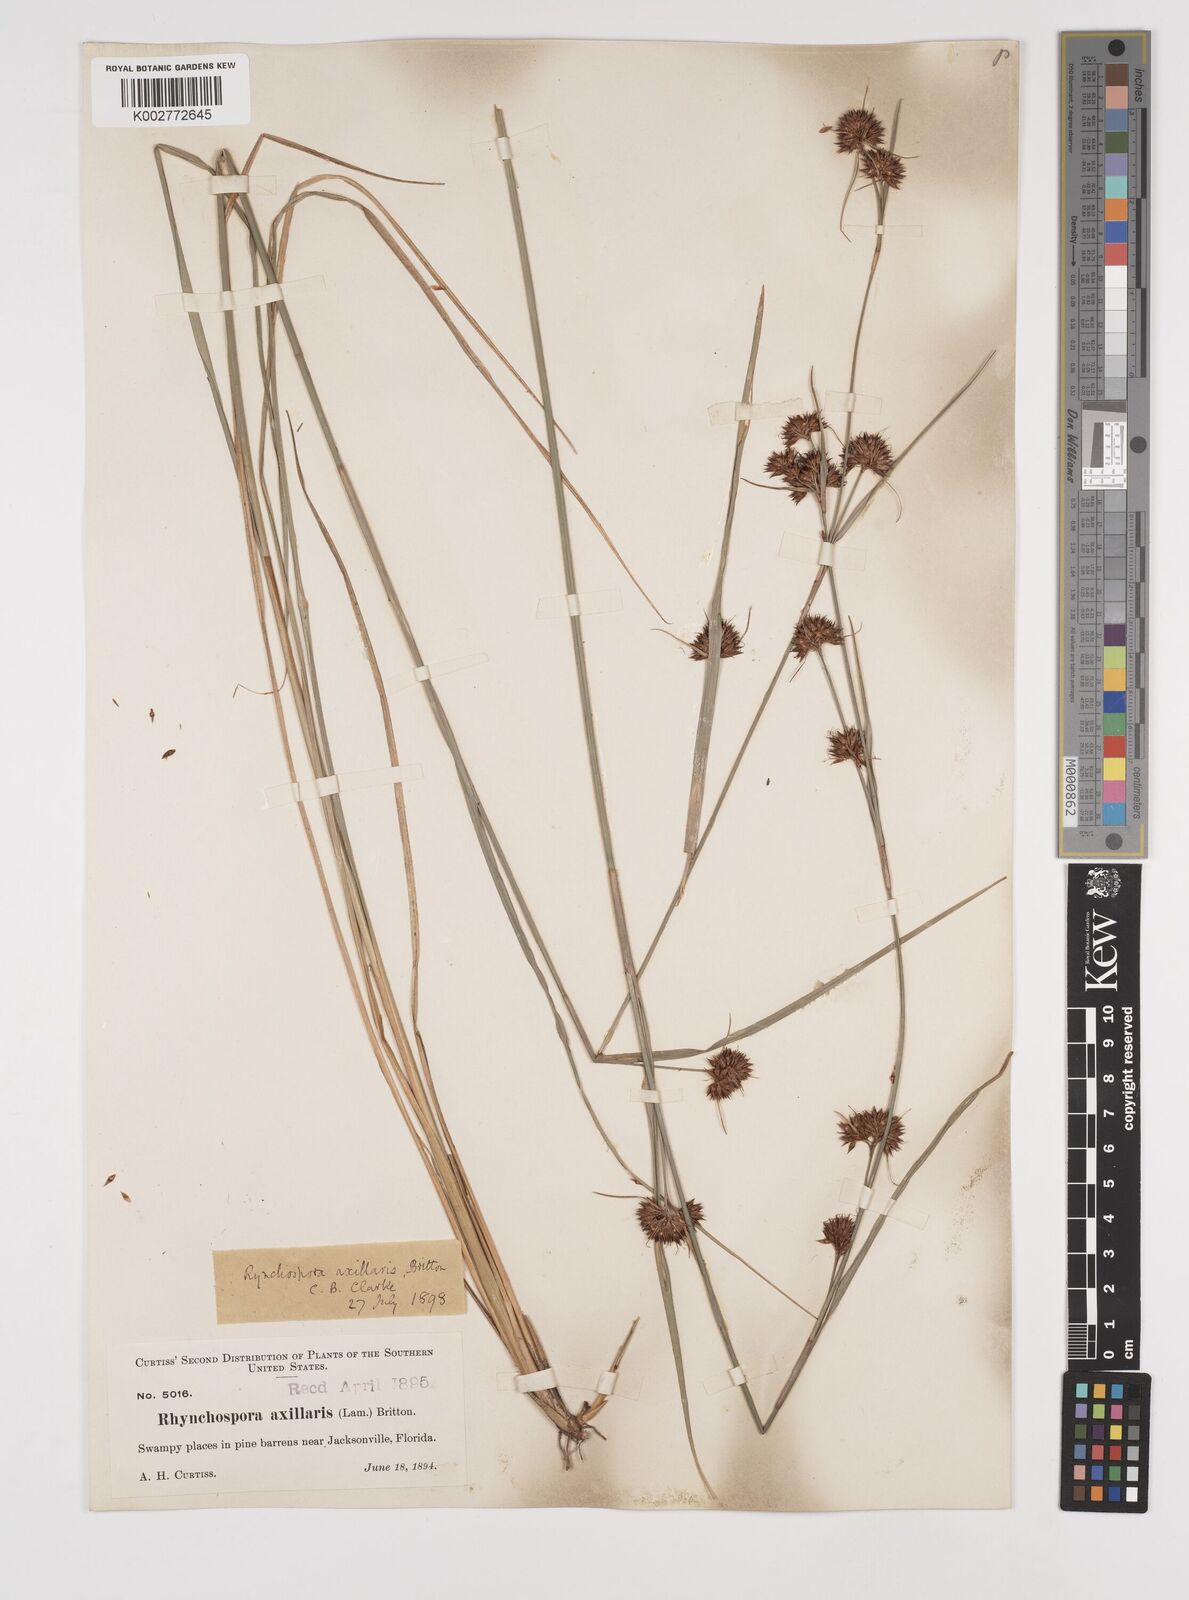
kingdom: Plantae
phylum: Tracheophyta
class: Liliopsida
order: Poales
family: Cyperaceae
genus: Rhynchospora
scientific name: Rhynchospora glomerata
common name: Cluster beak sedge
